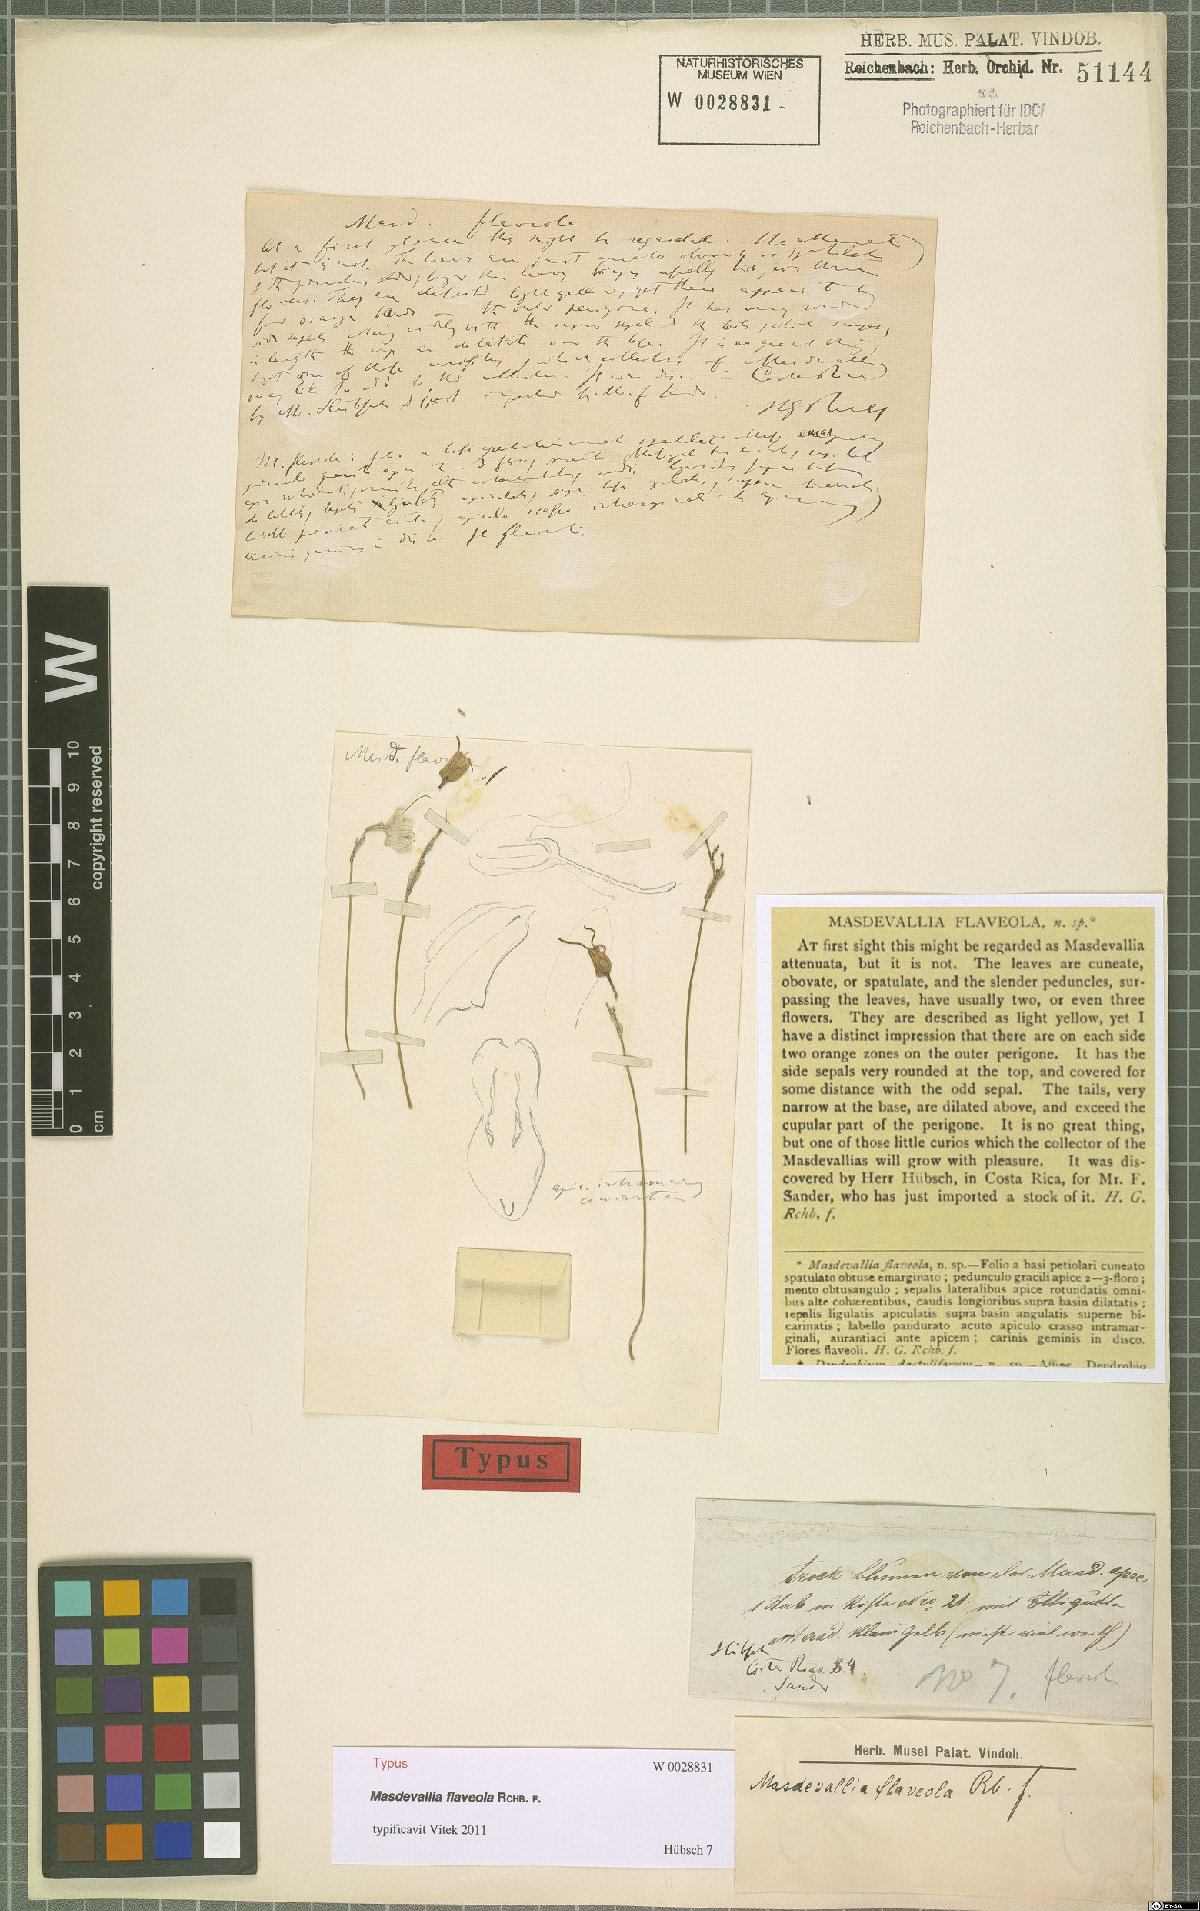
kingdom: Plantae
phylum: Tracheophyta
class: Liliopsida
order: Asparagales
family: Orchidaceae
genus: Masdevallia
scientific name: Masdevallia flaveola
